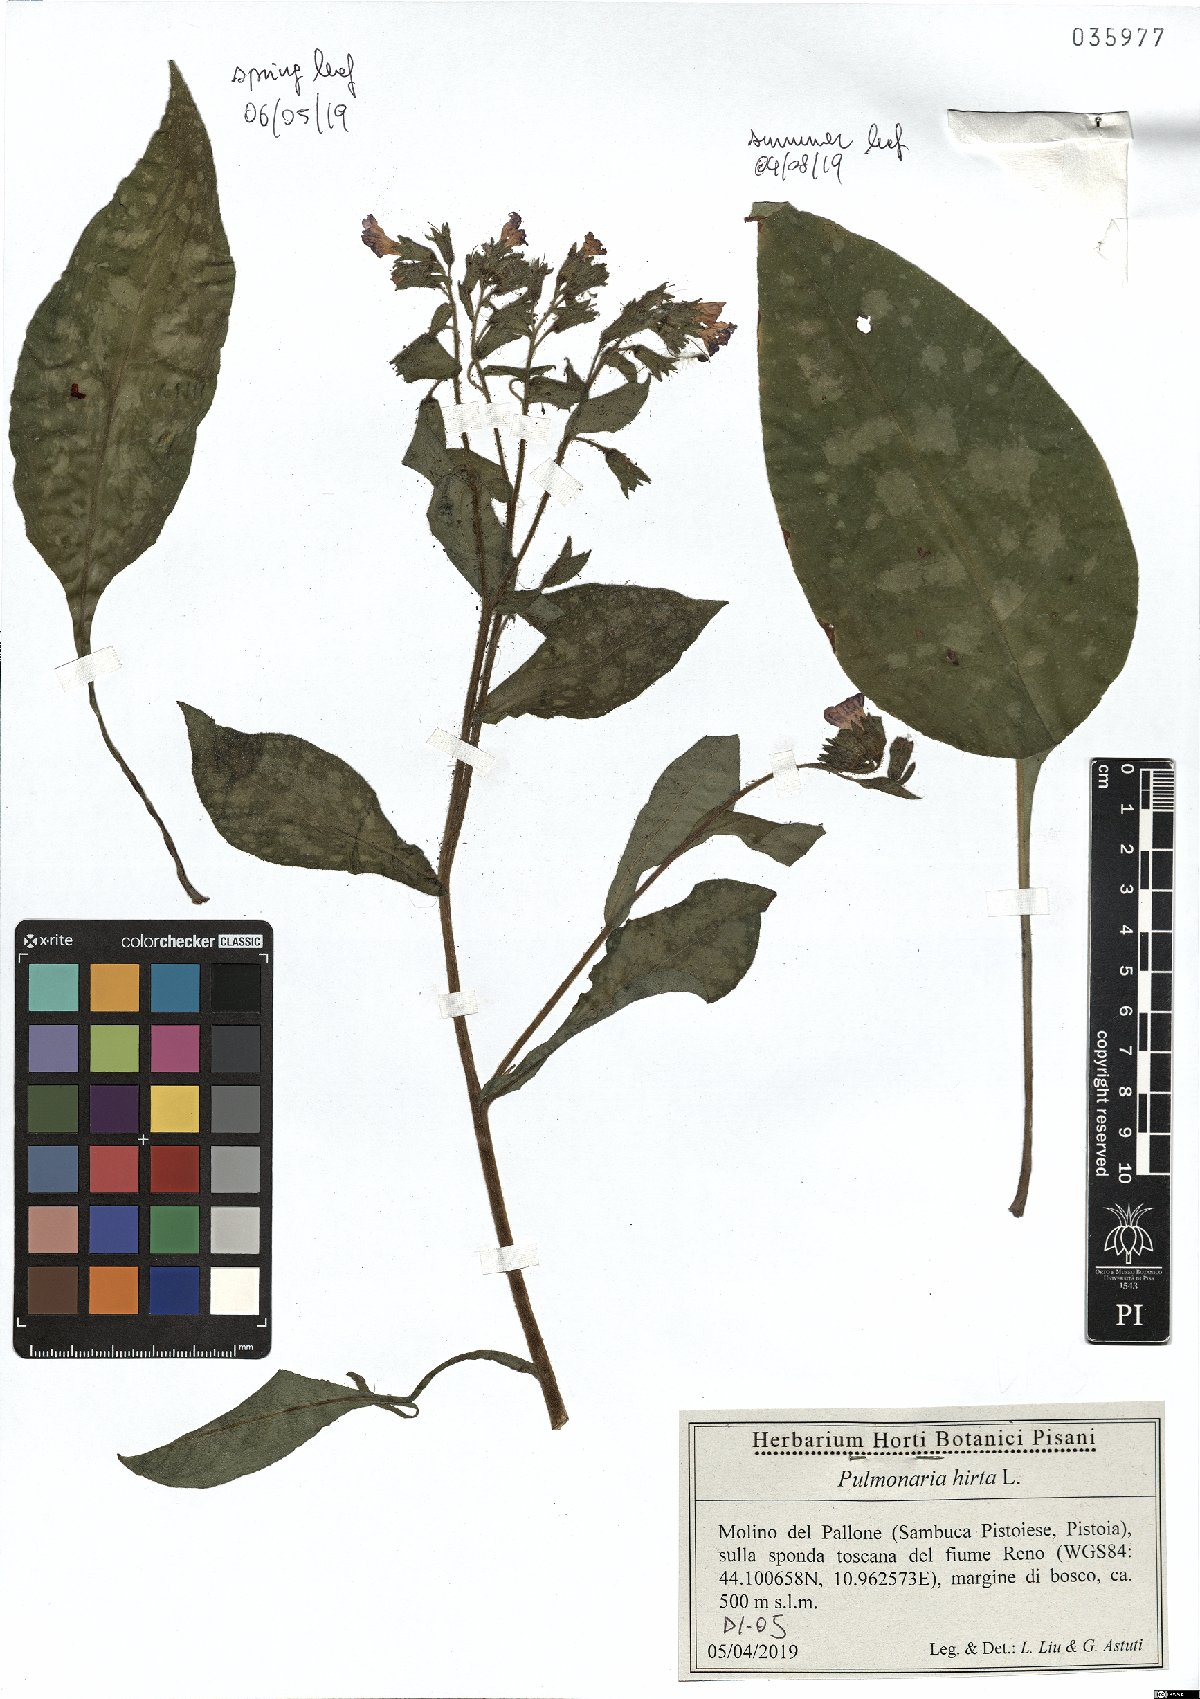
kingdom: Plantae
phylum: Tracheophyta
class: Magnoliopsida
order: Boraginales
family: Boraginaceae
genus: Pulmonaria
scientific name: Pulmonaria hirta
